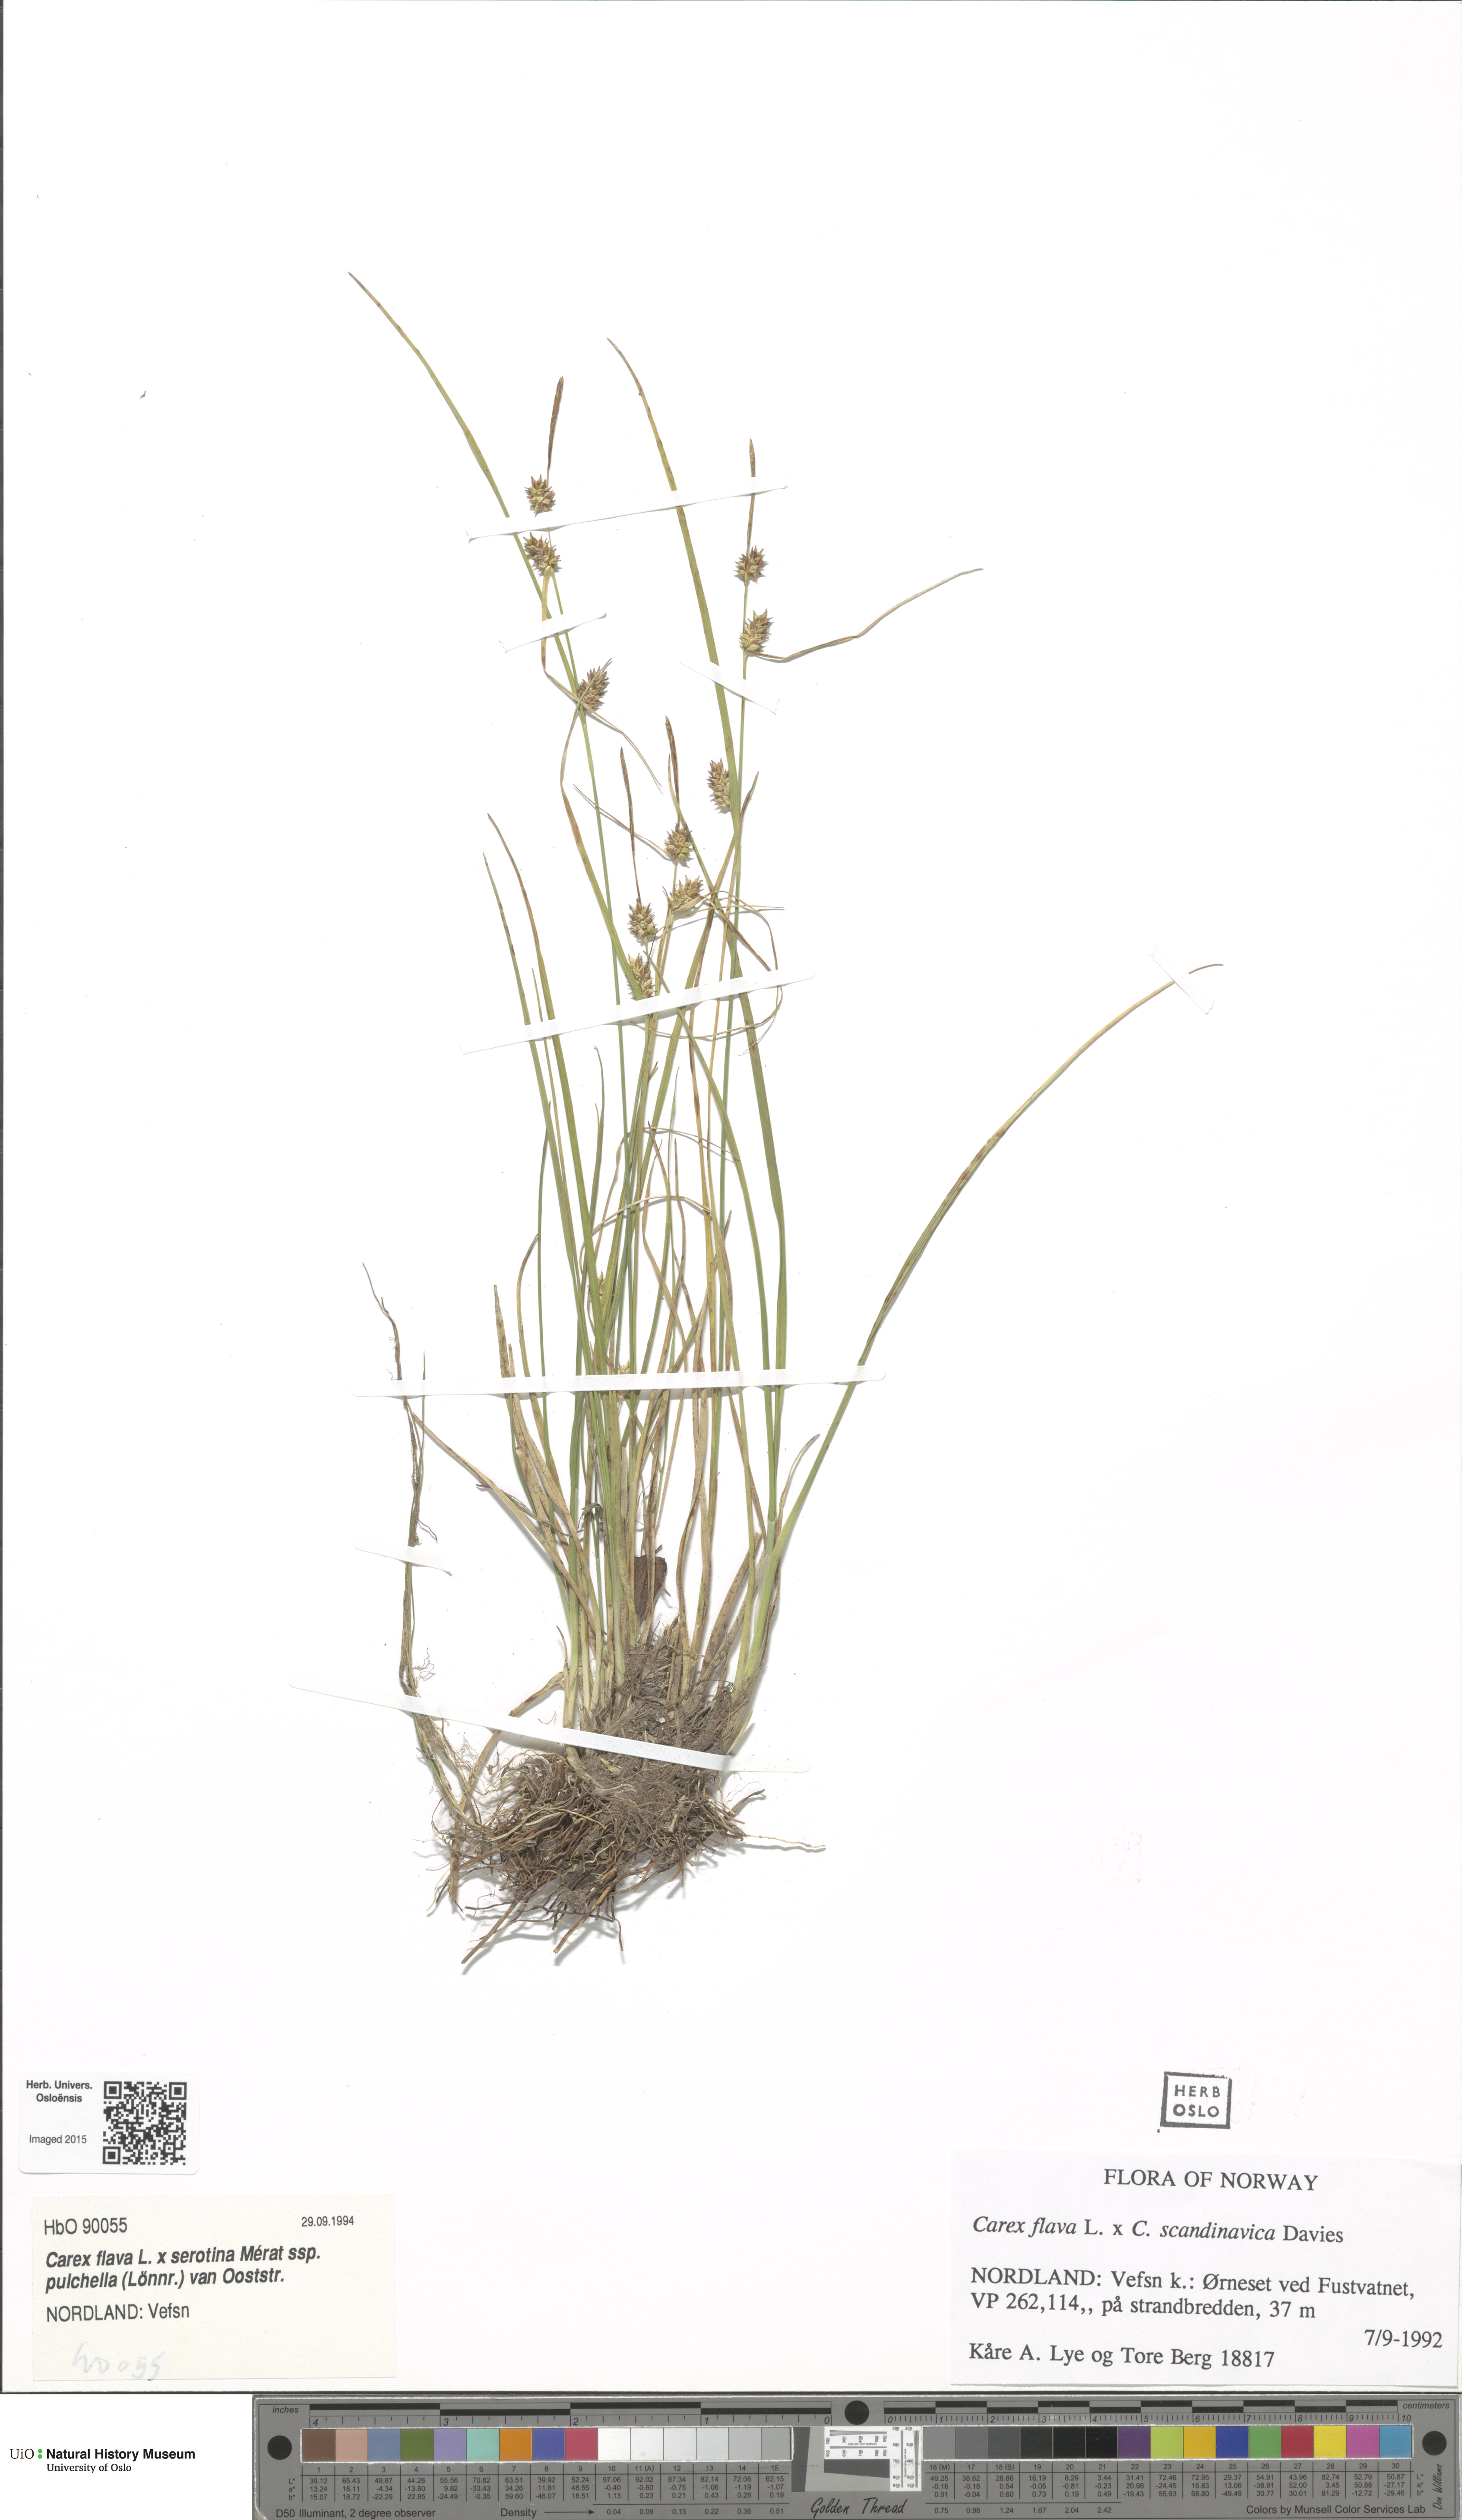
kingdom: Plantae
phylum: Tracheophyta
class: Liliopsida
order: Poales
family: Cyperaceae
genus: Carex
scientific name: Carex
